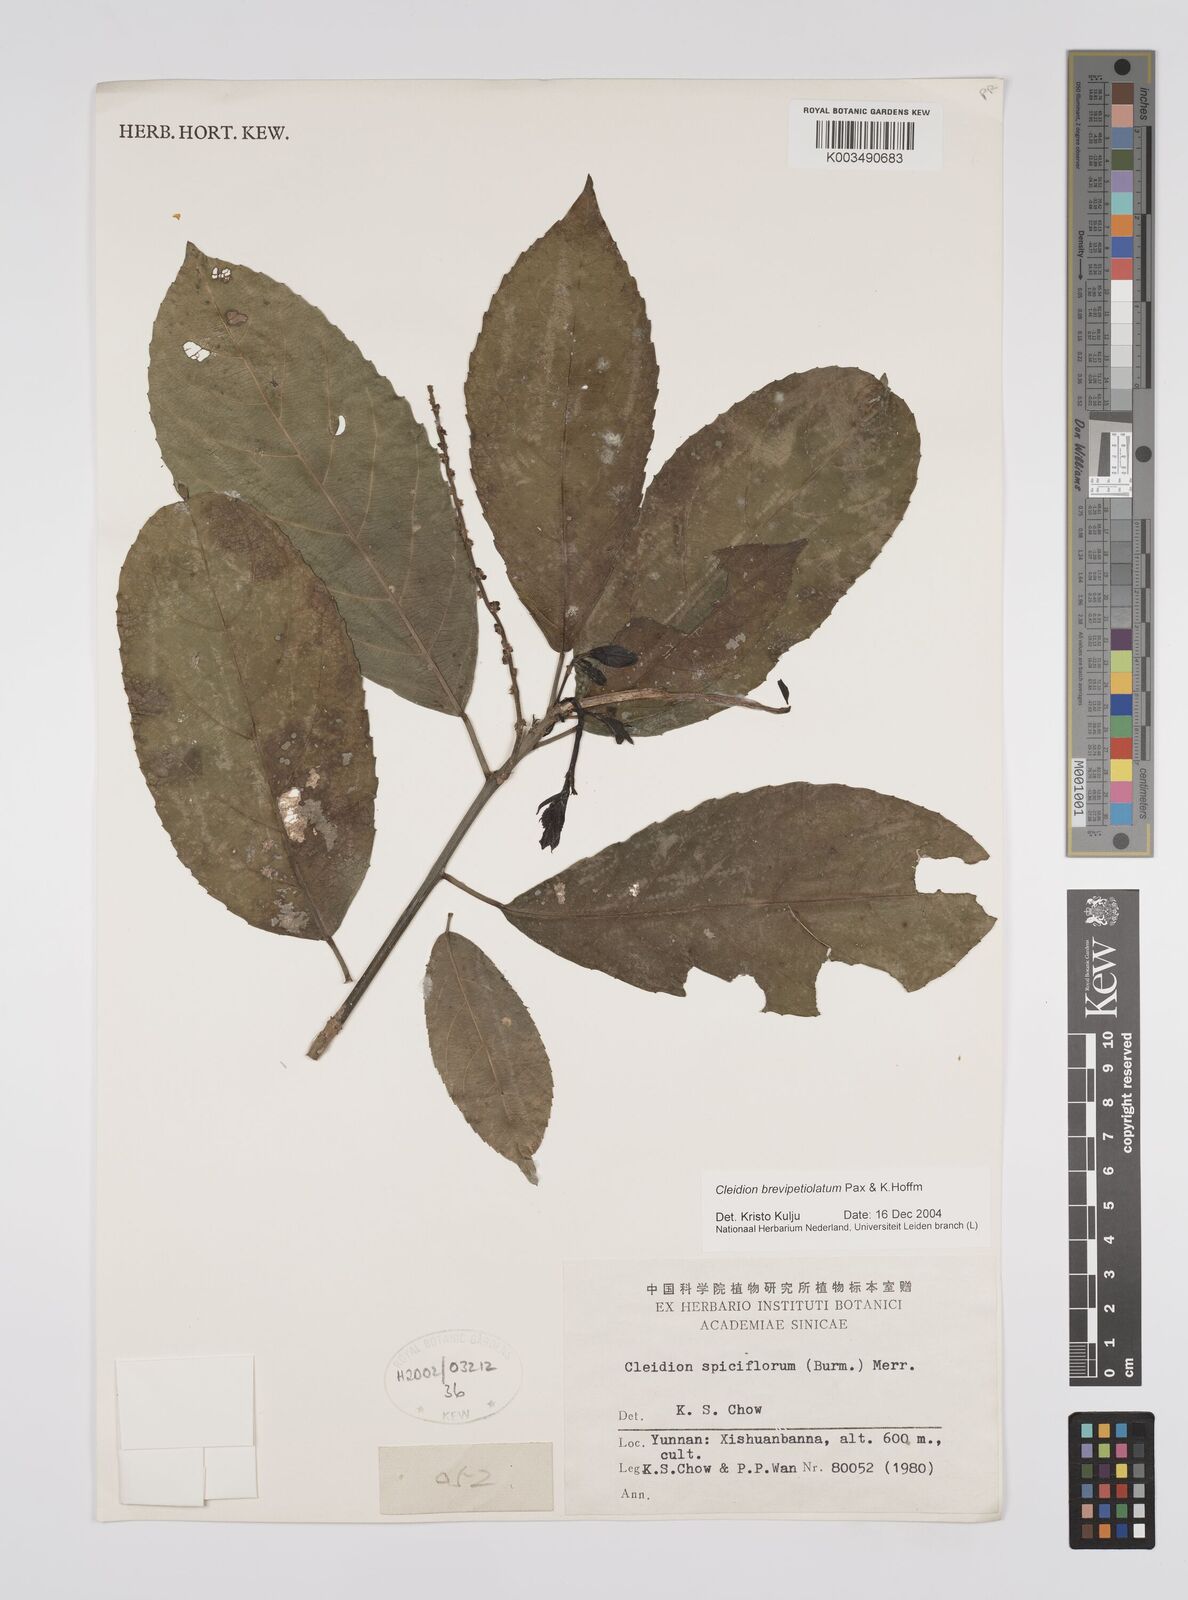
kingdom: Plantae
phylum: Tracheophyta
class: Magnoliopsida
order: Malpighiales
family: Euphorbiaceae
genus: Cleidion
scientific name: Cleidion brevipetiolatum
